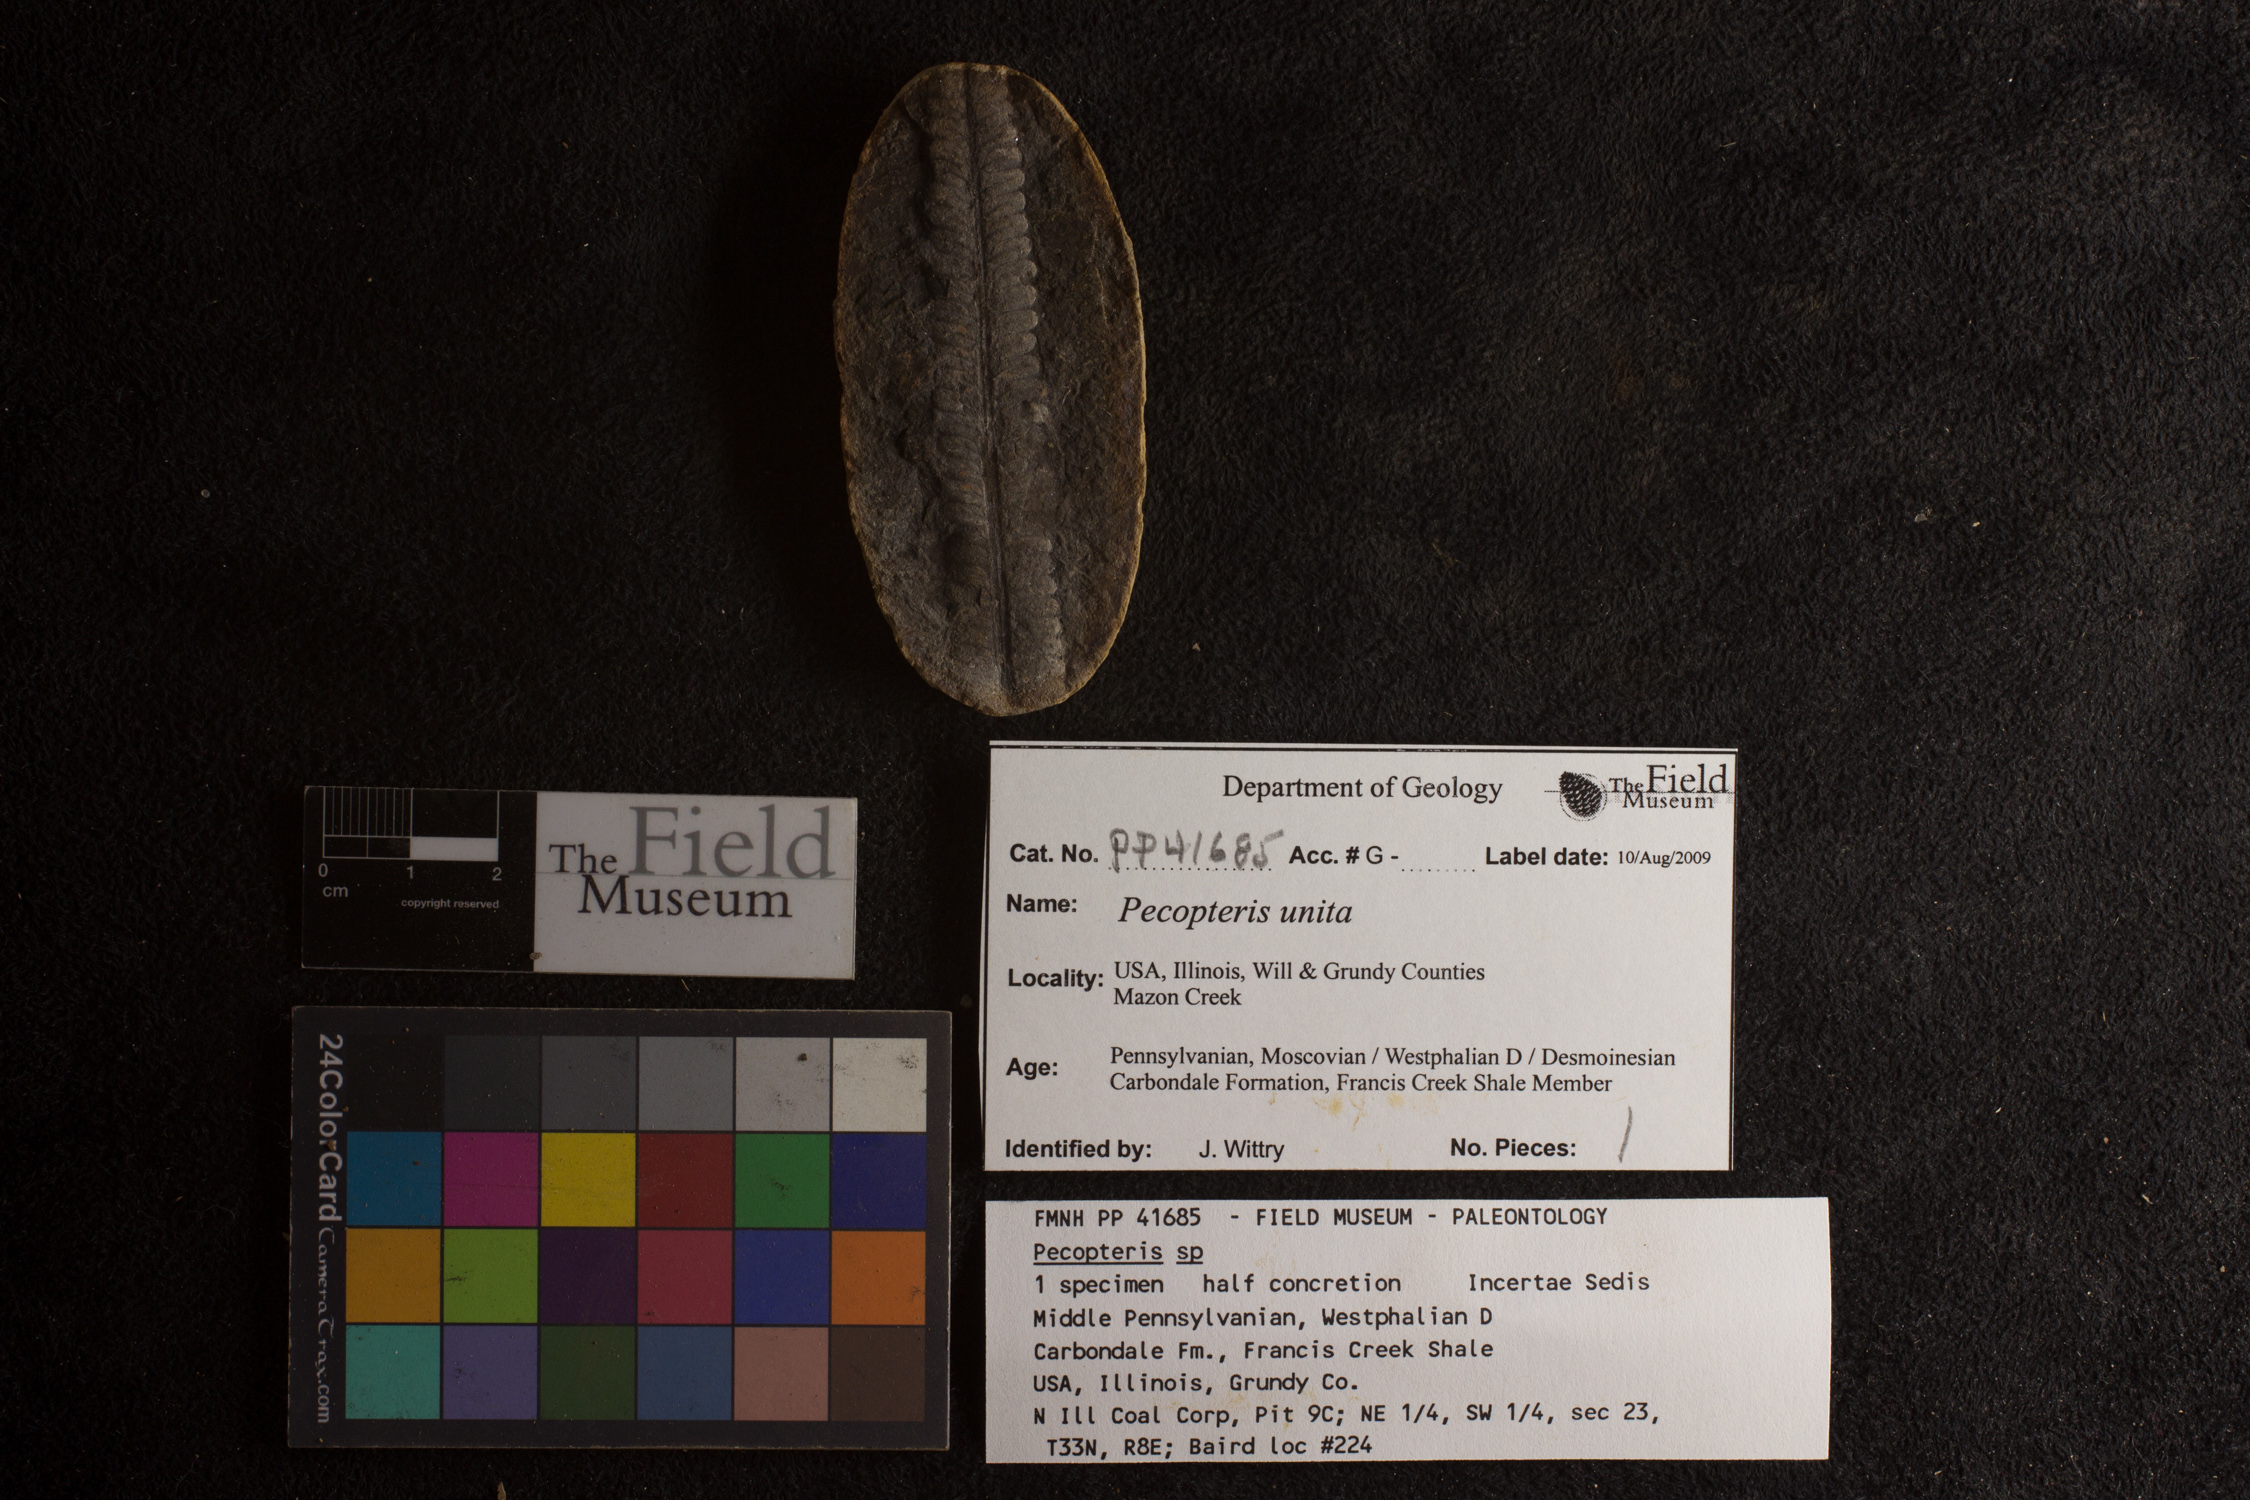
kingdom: Plantae
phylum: Tracheophyta
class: Polypodiopsida
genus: Diplazites
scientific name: Diplazites
